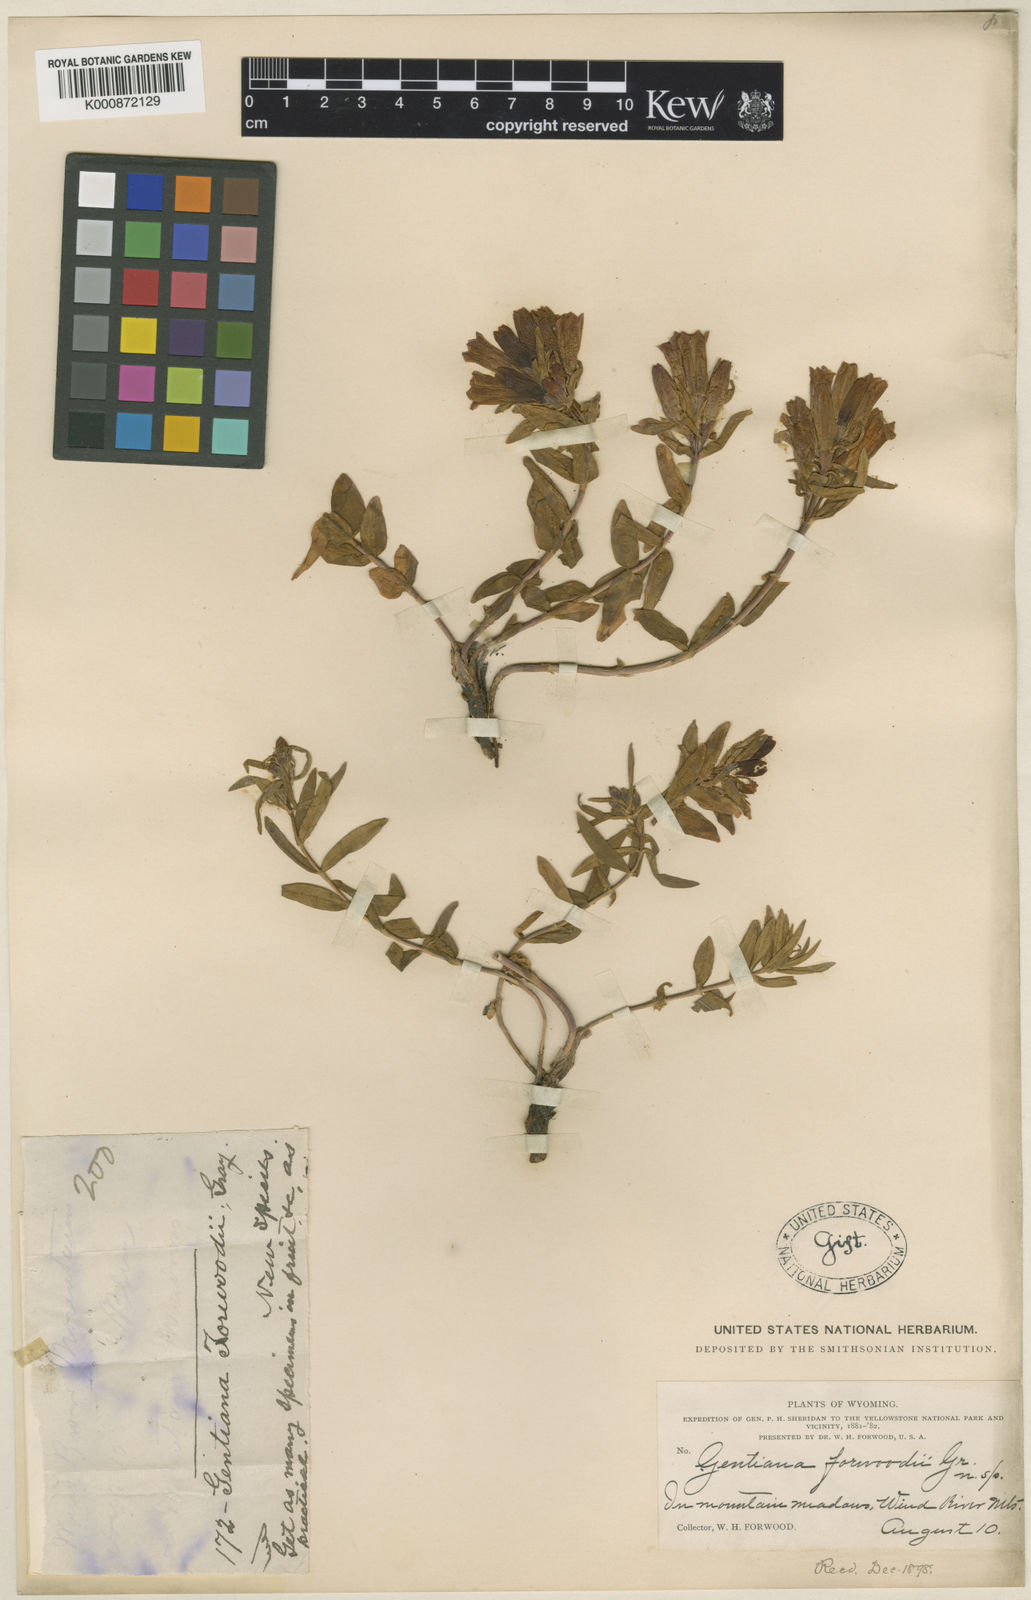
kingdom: Plantae
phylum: Tracheophyta
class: Magnoliopsida
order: Gentianales
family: Gentianaceae
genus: Gentiana
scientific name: Gentiana affinis
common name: Rocky mountain gentian
